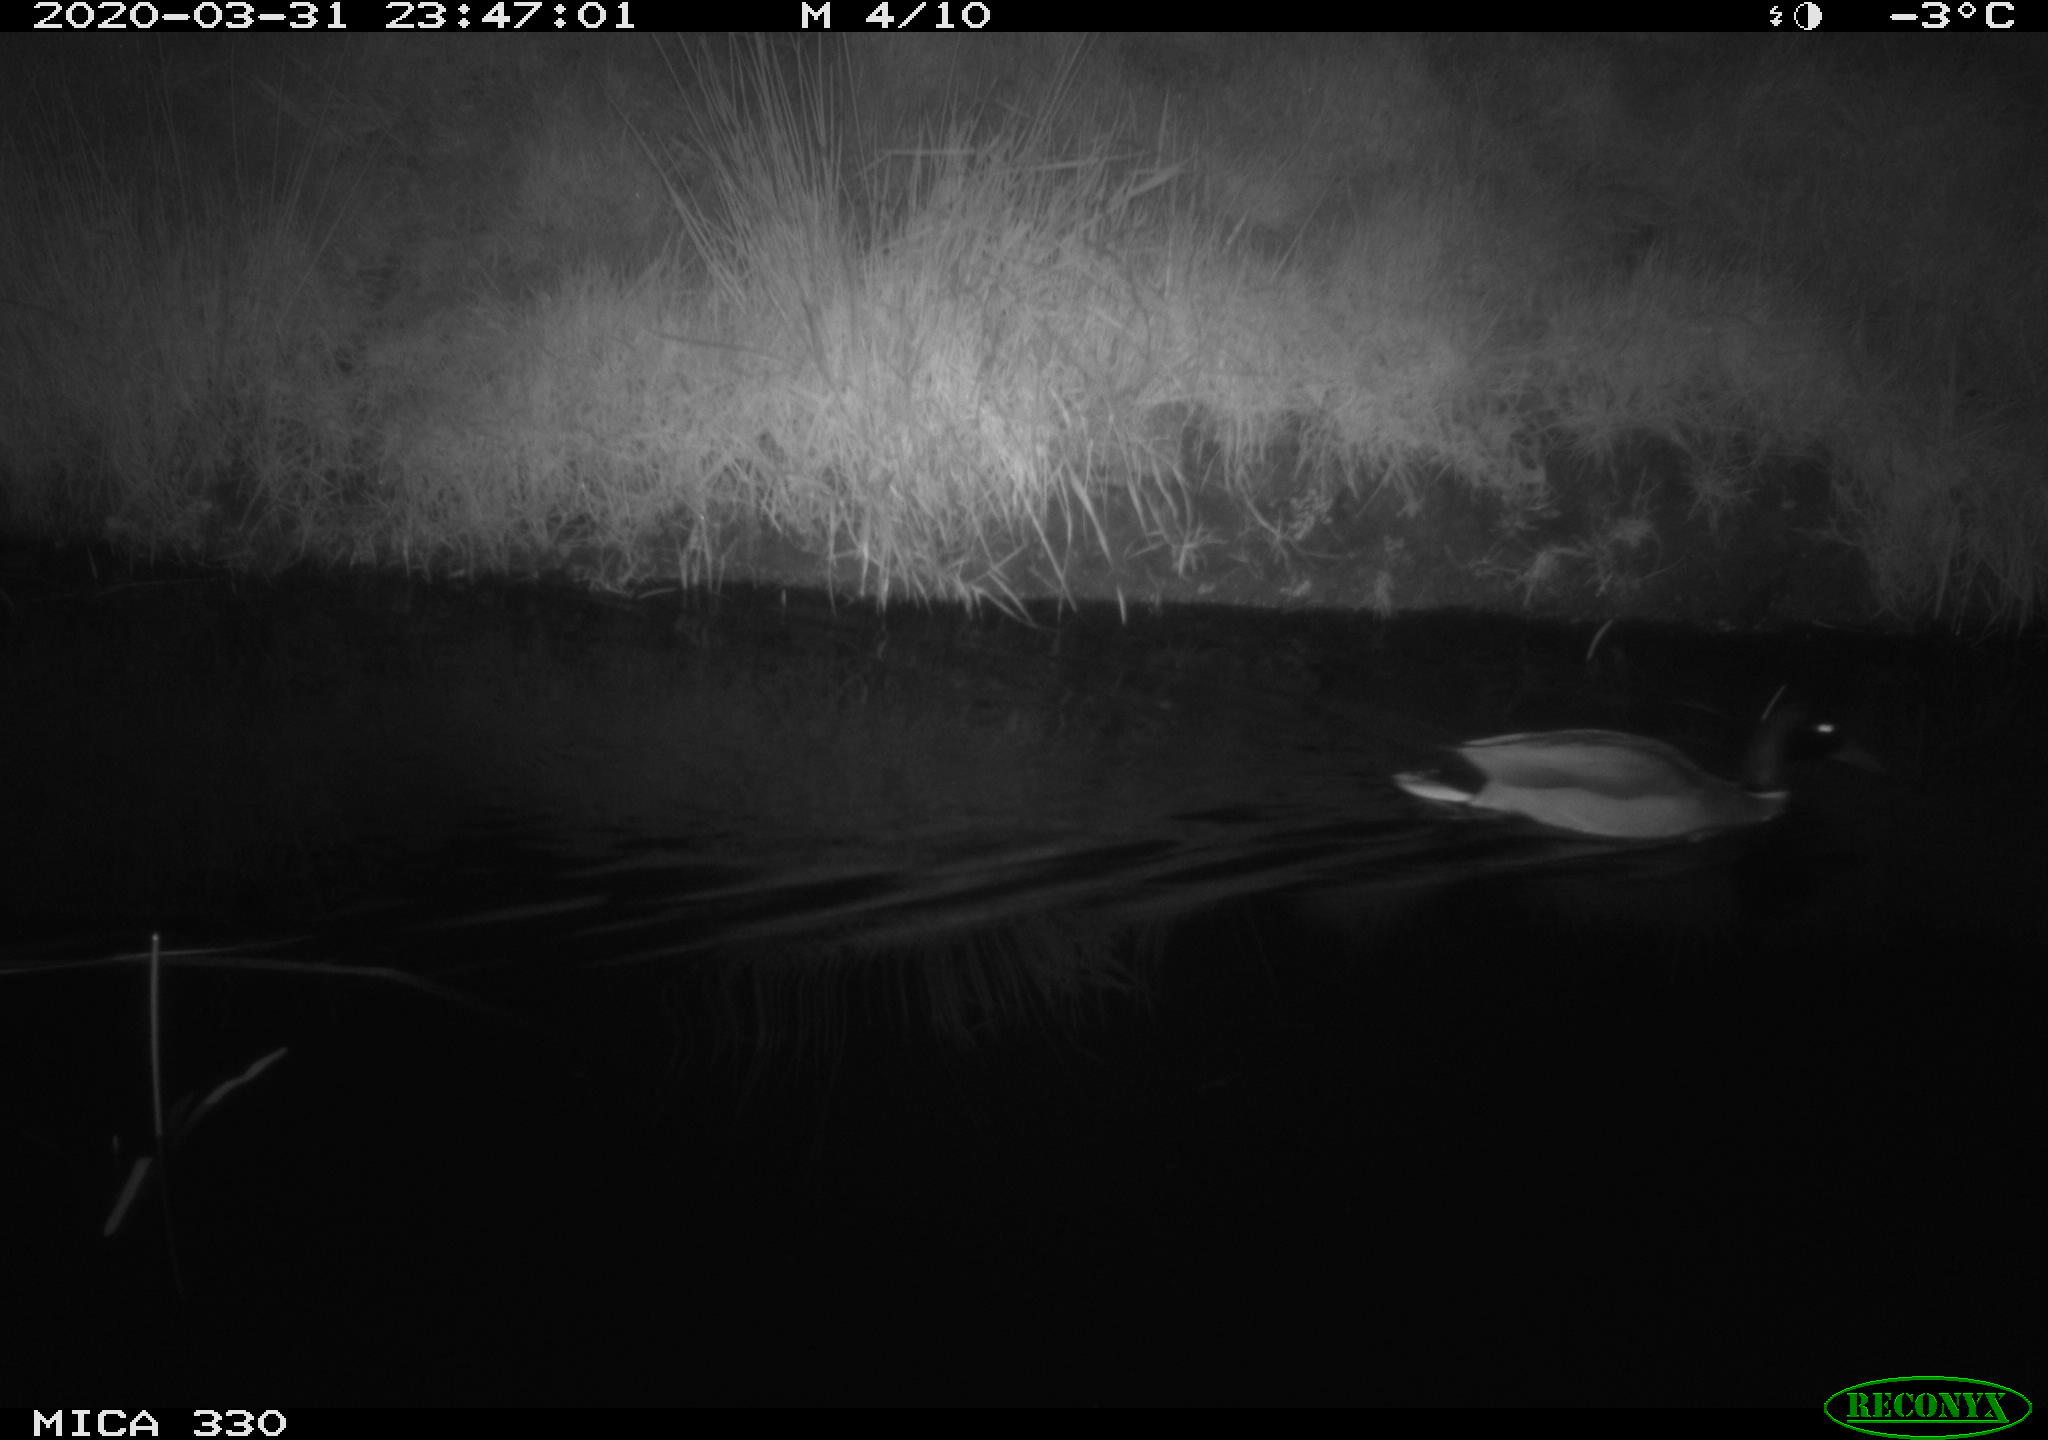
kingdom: Animalia
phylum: Chordata
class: Aves
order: Anseriformes
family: Anatidae
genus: Anas
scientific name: Anas platyrhynchos
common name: Mallard
